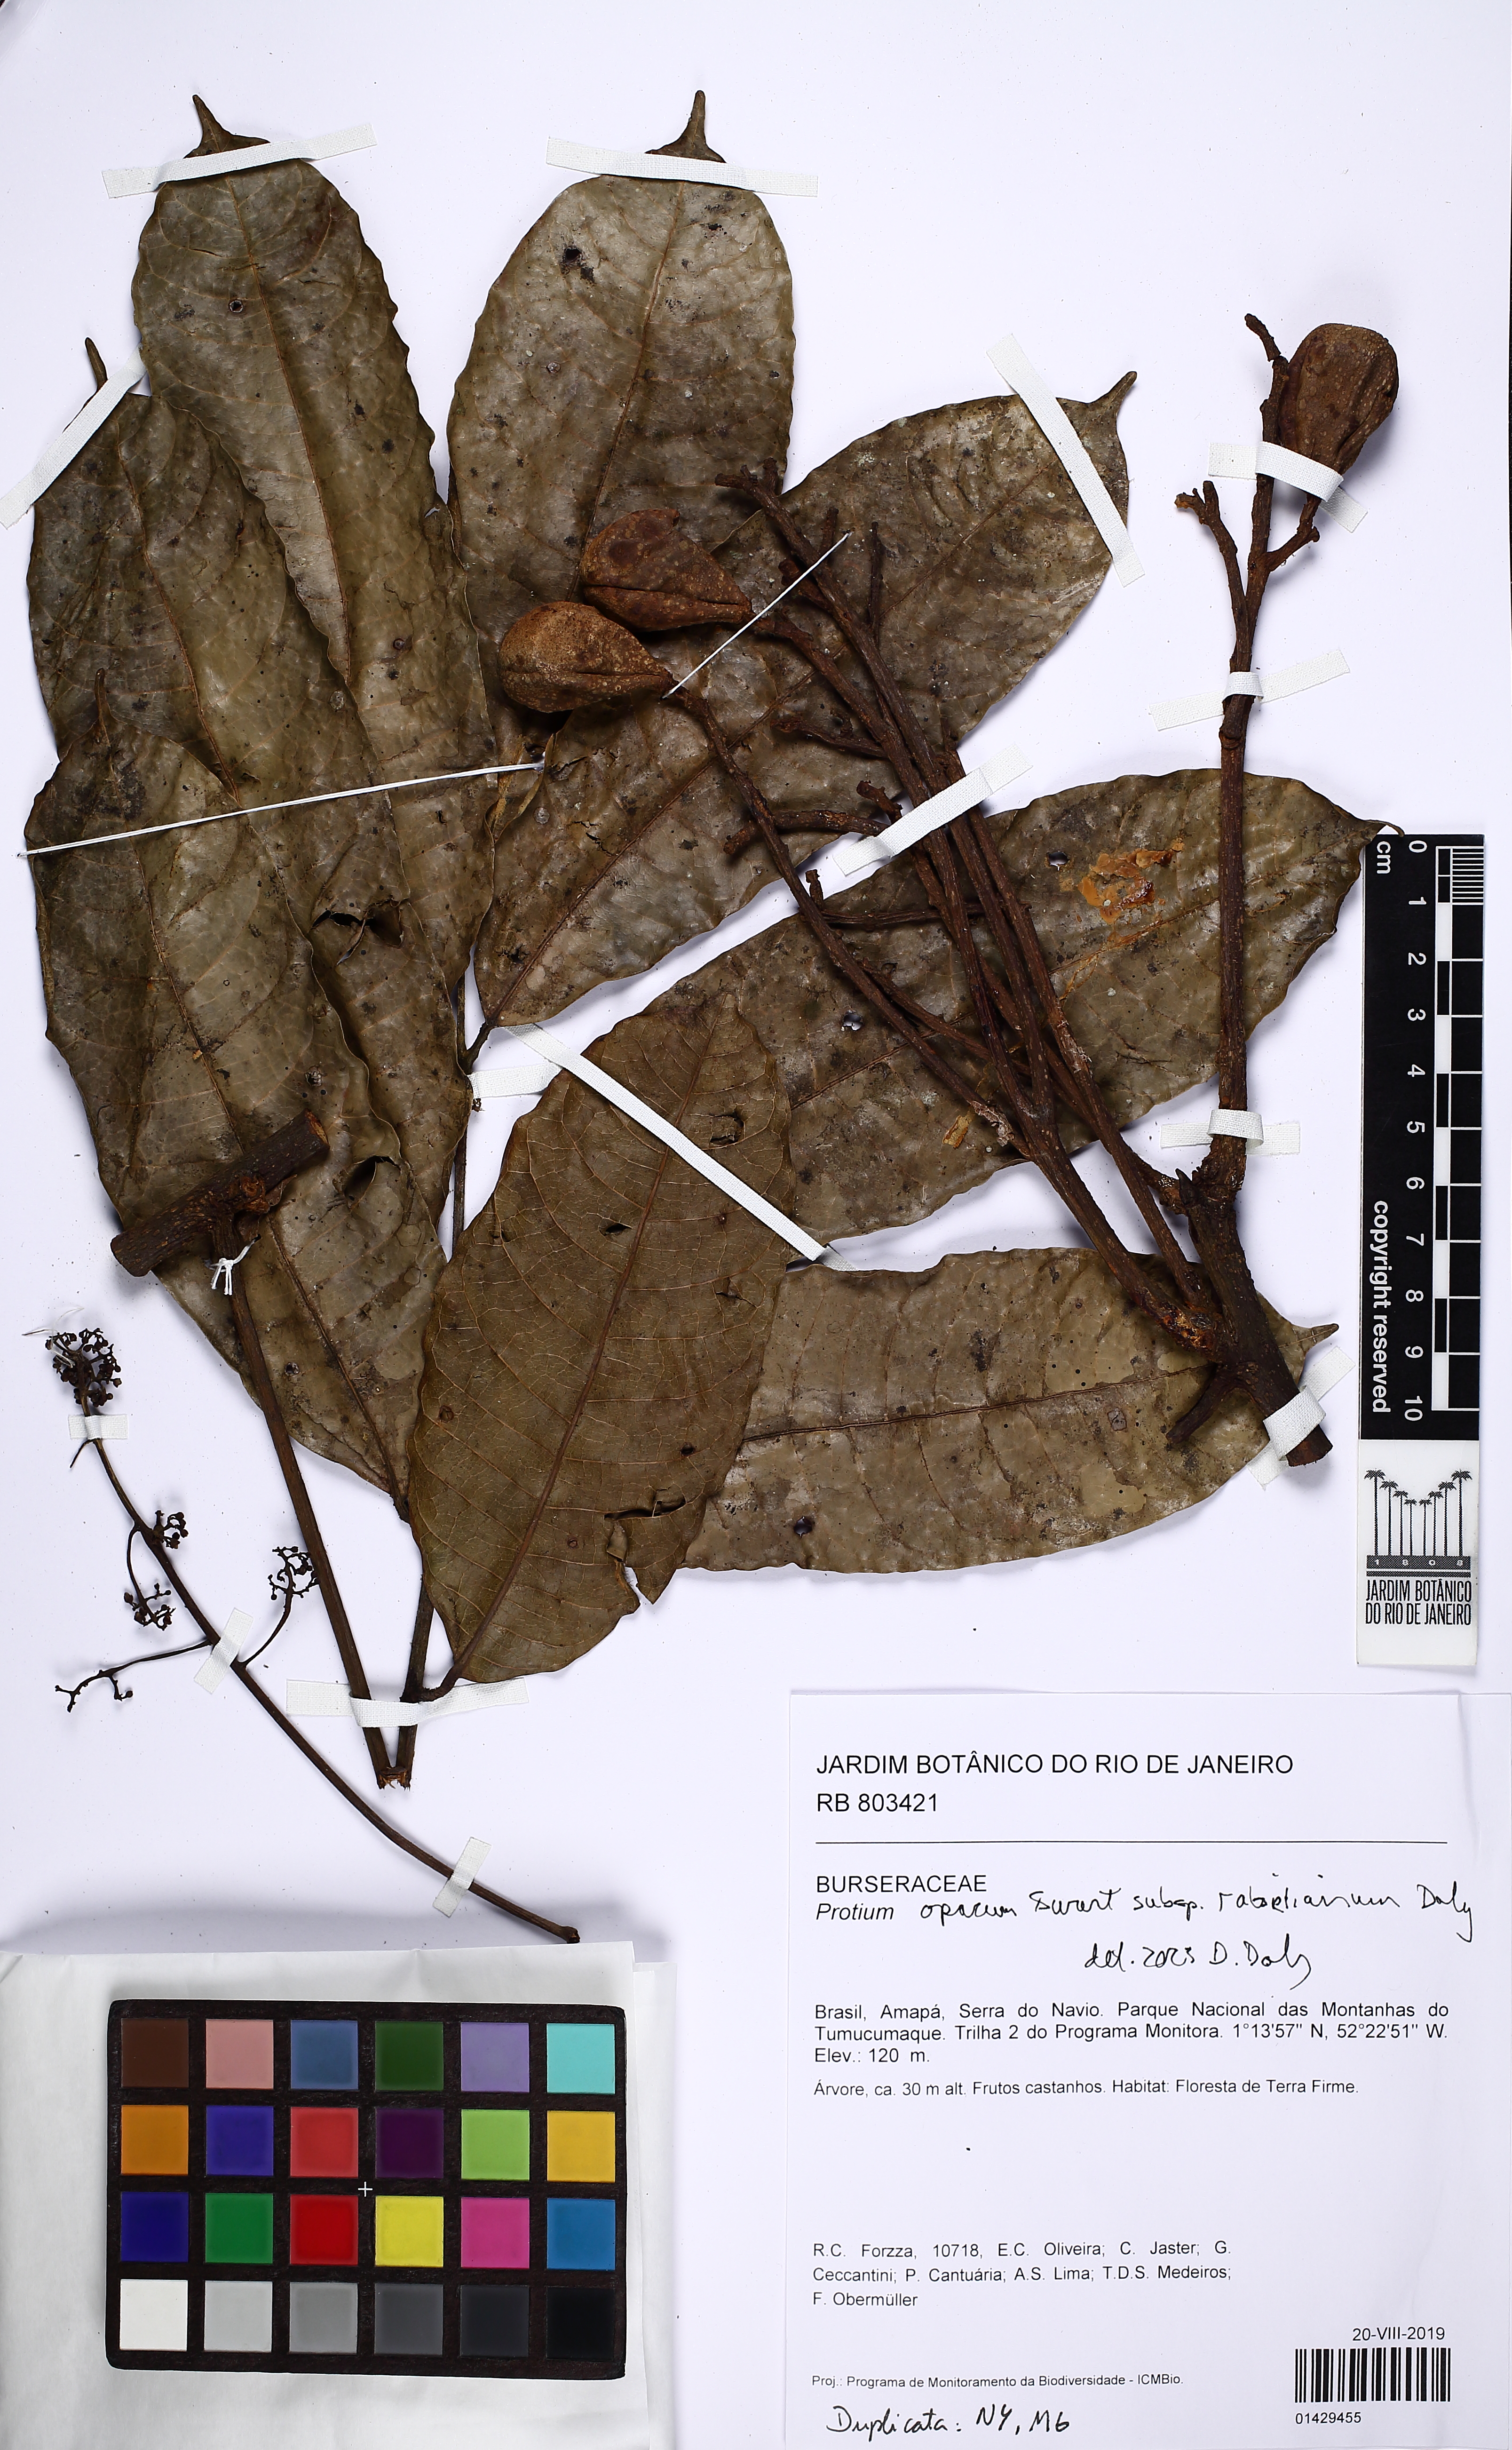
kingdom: Plantae
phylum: Tracheophyta
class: Magnoliopsida
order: Sapindales
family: Burseraceae
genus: Protium
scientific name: Protium opacum
